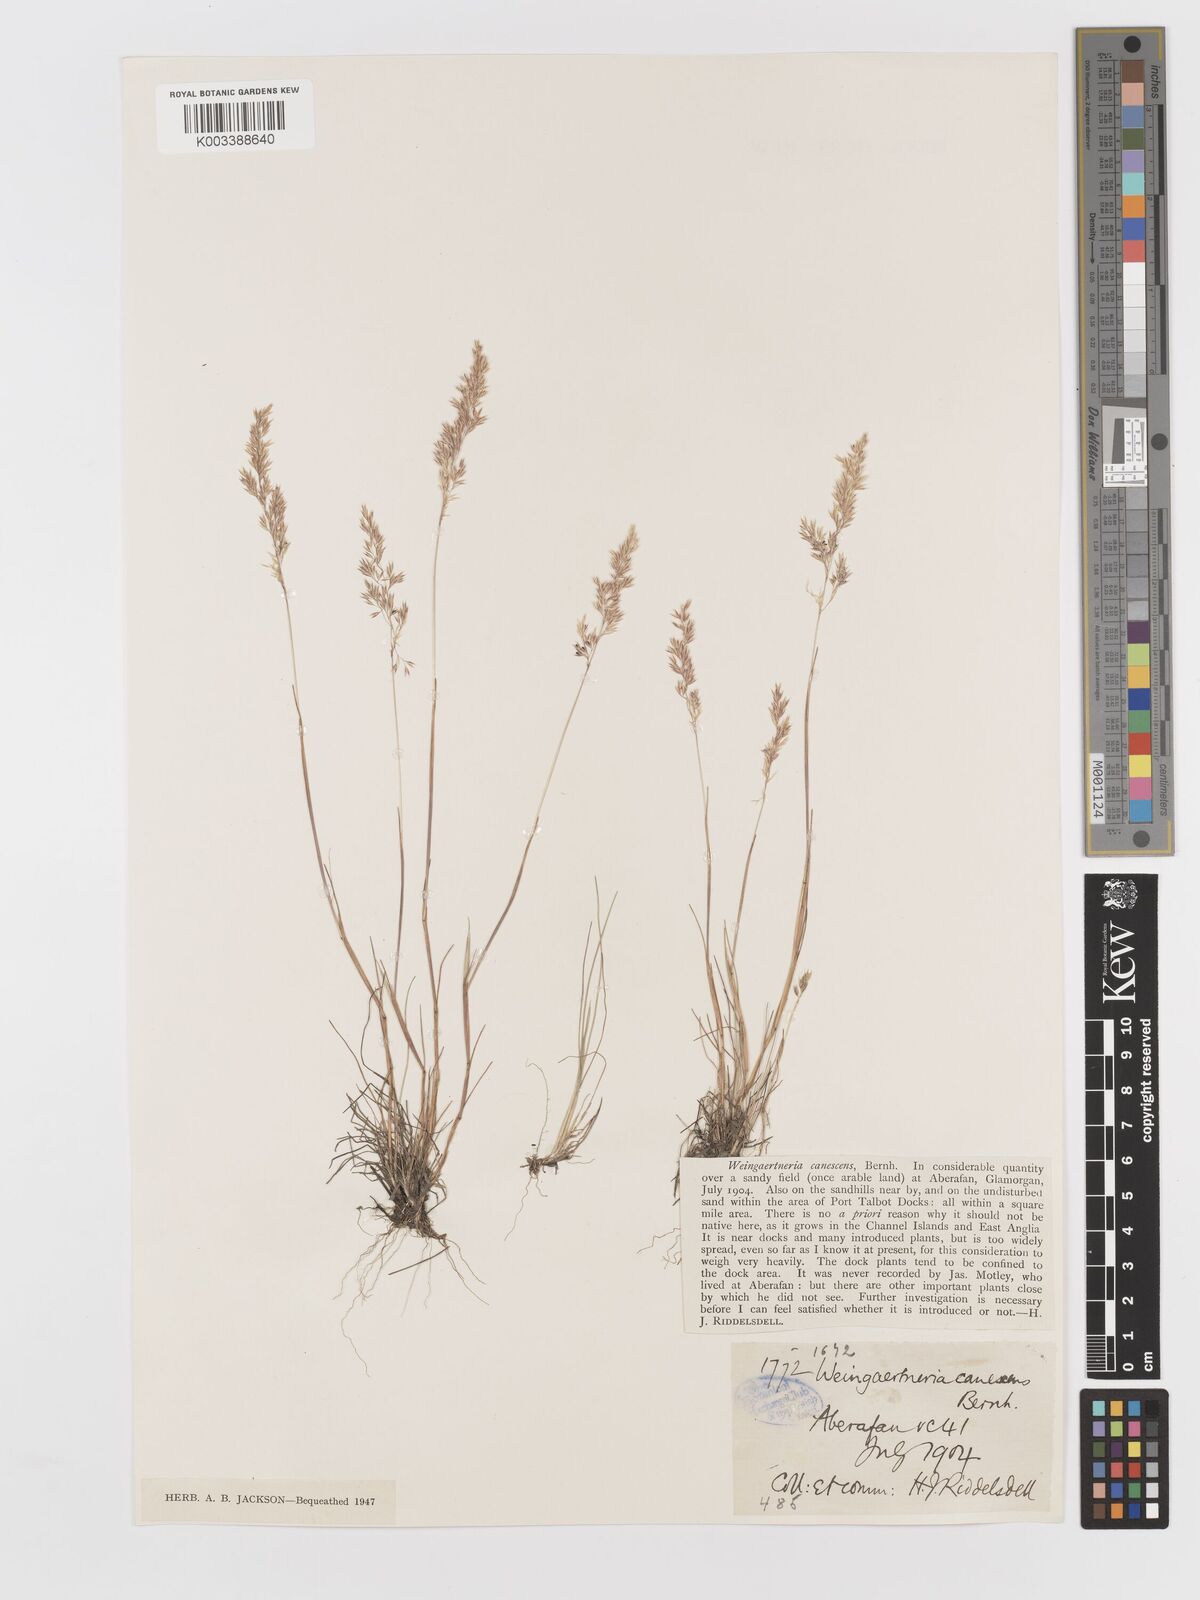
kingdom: Plantae
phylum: Tracheophyta
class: Liliopsida
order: Poales
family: Poaceae
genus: Corynephorus
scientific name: Corynephorus canescens
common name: Grey hair-grass
